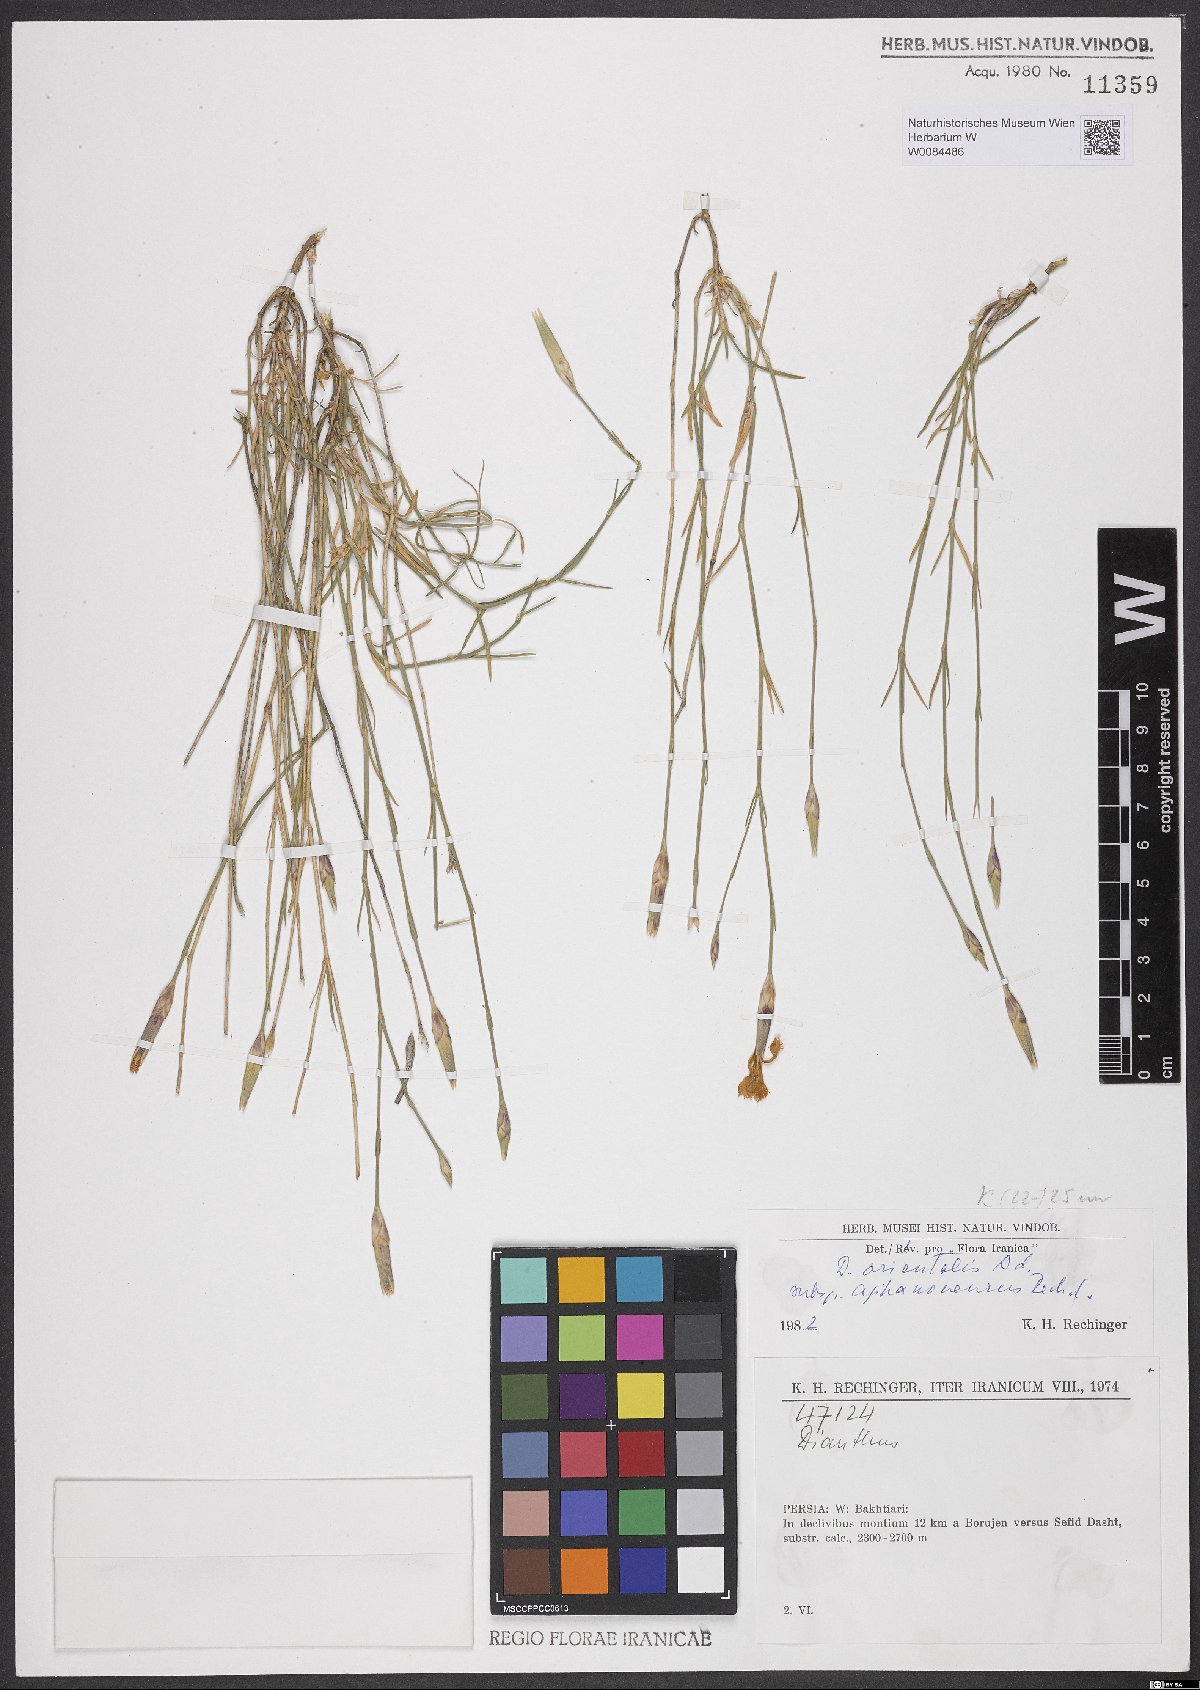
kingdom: Plantae
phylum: Tracheophyta
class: Magnoliopsida
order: Caryophyllales
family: Caryophyllaceae
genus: Dianthus
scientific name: Dianthus orientalis
